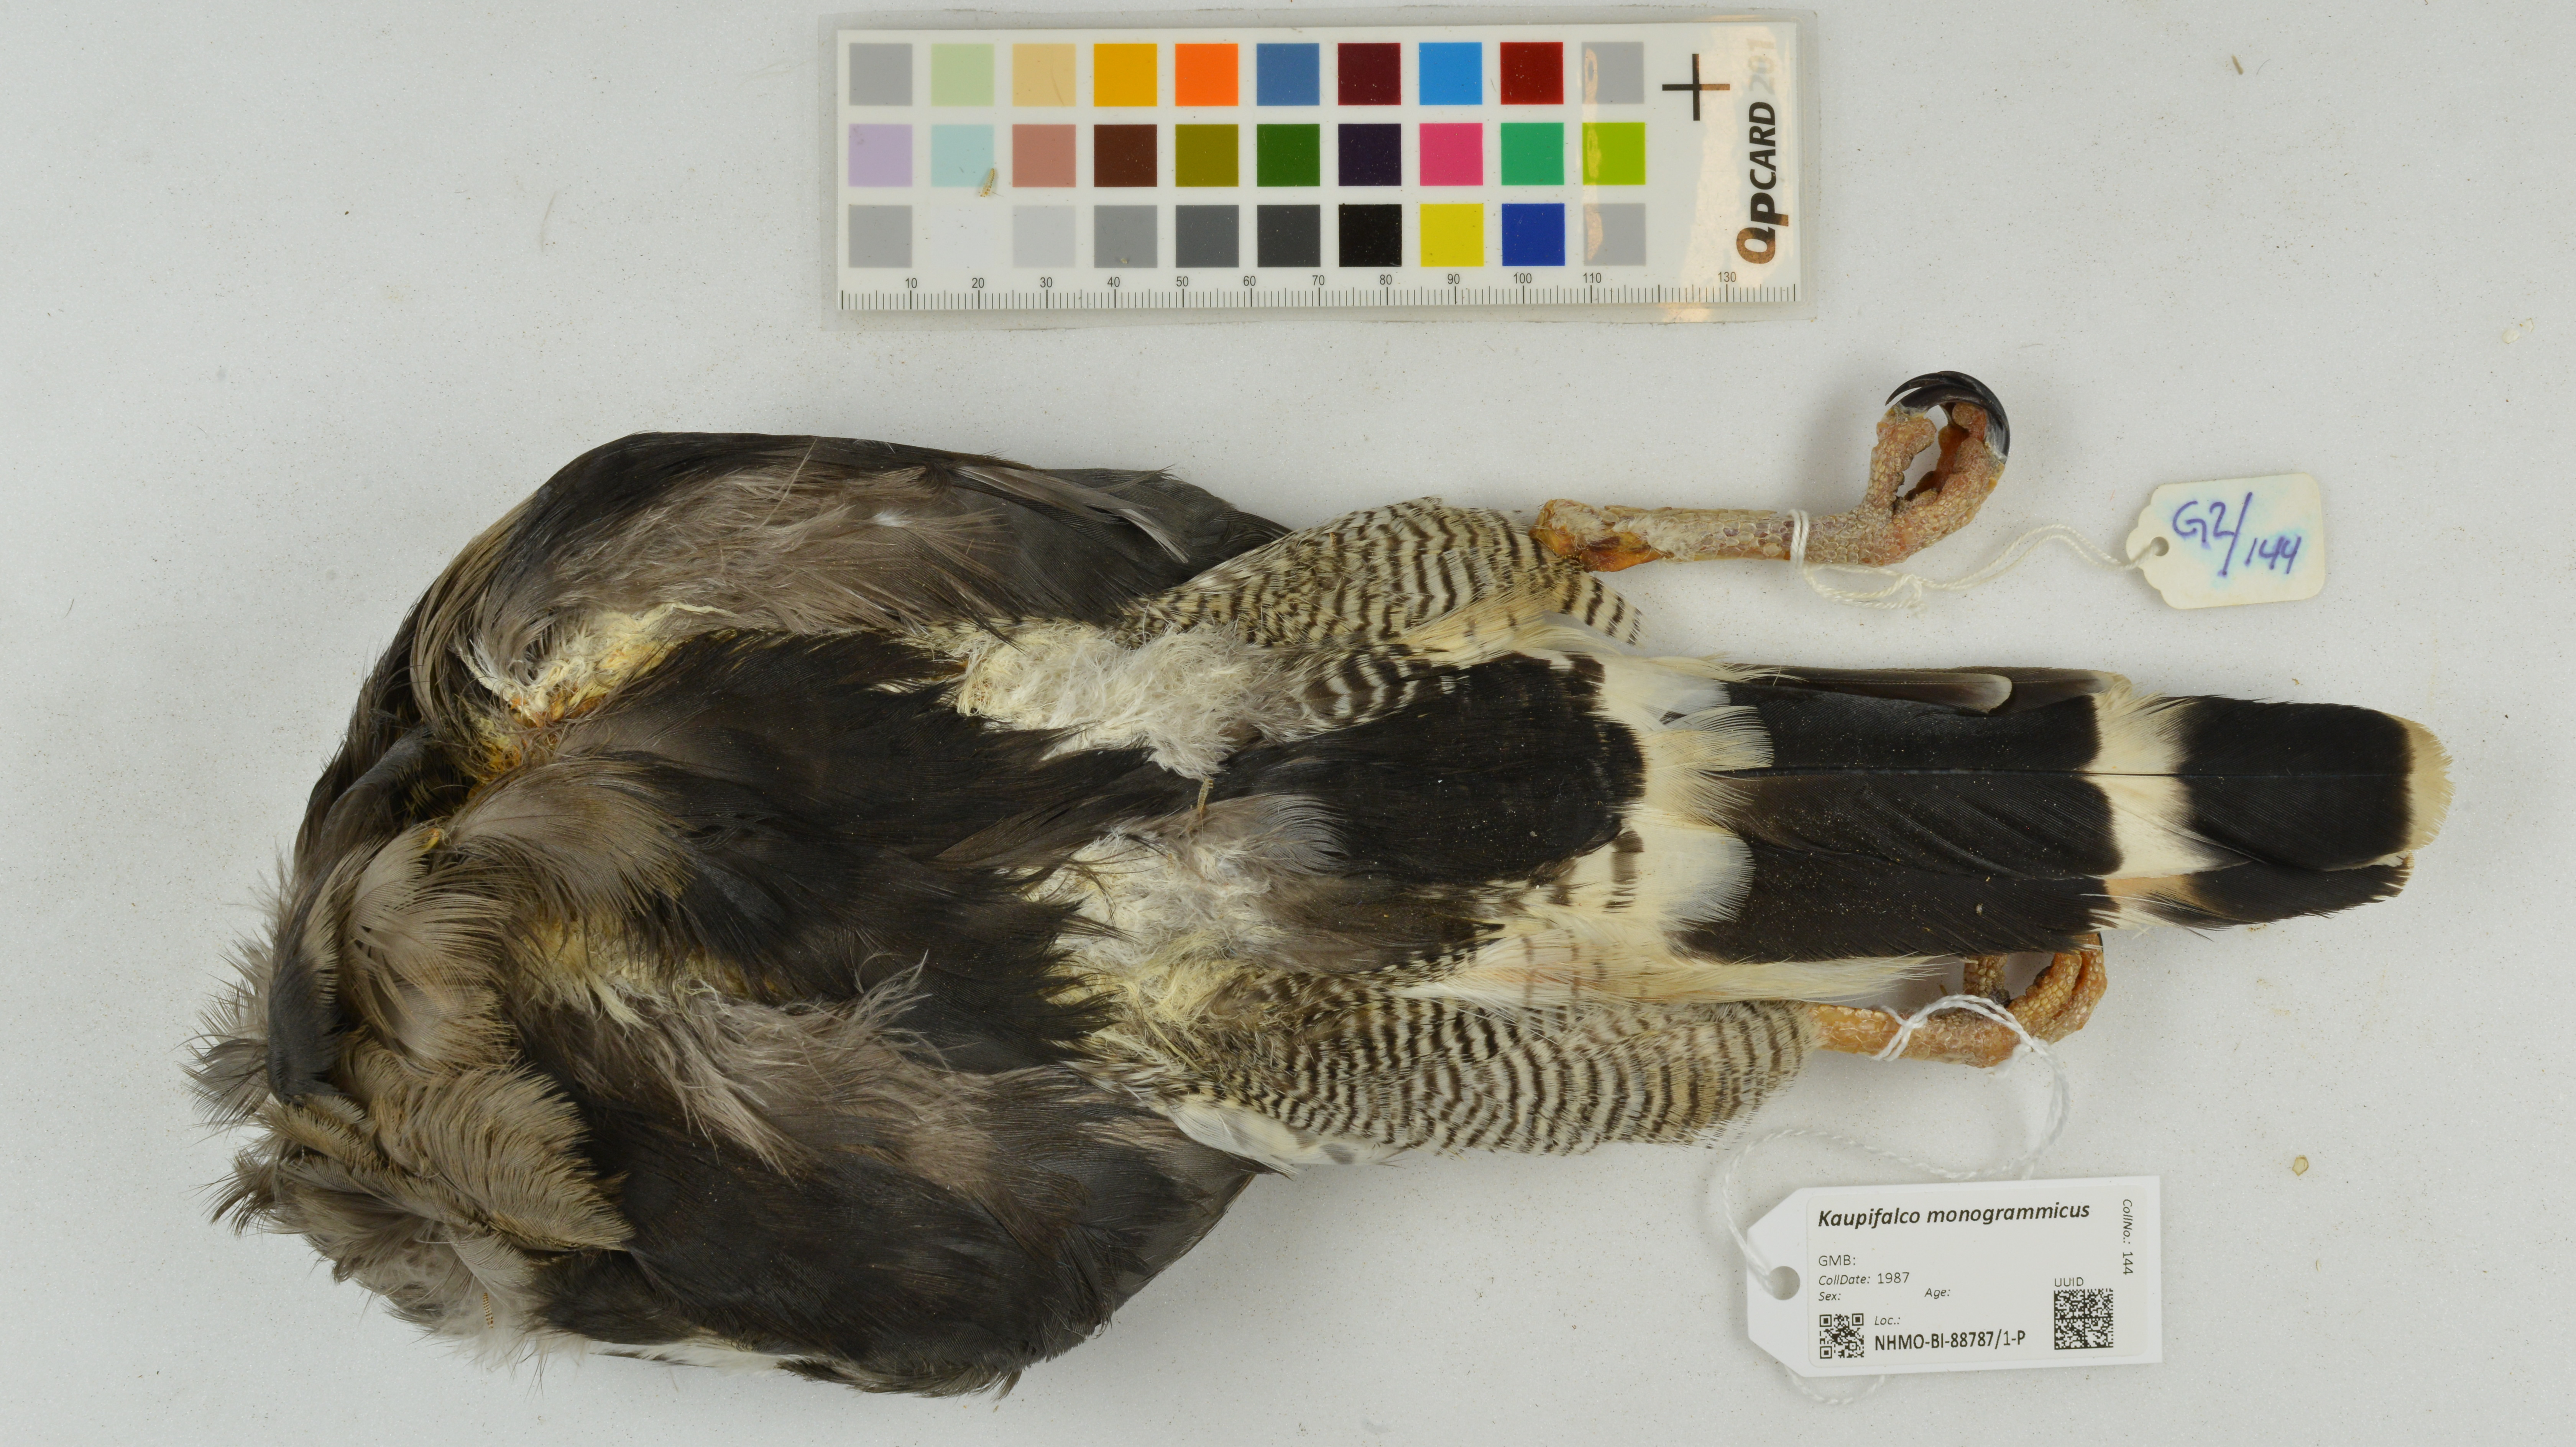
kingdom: Animalia
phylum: Chordata
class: Aves
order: Accipitriformes
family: Accipitridae
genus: Kaupifalco
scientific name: Kaupifalco monogrammicus
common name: Lizard buzzard
